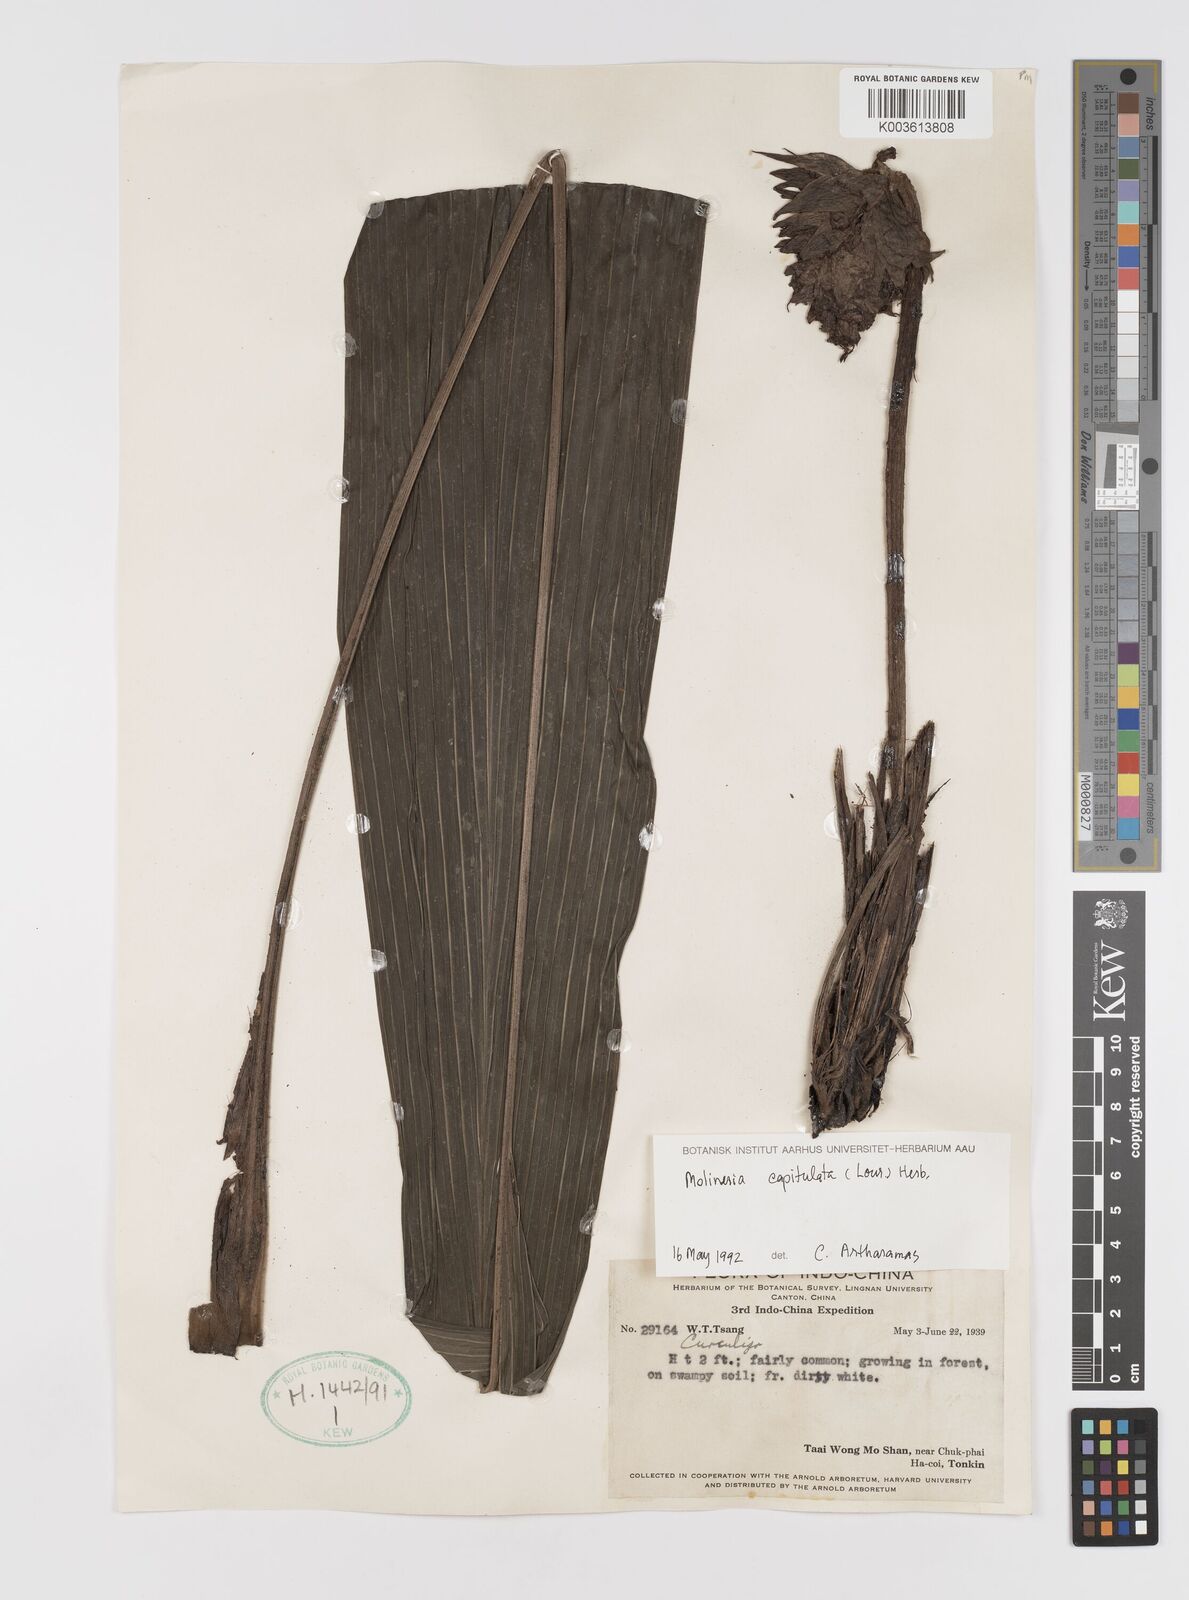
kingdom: Plantae
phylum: Tracheophyta
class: Liliopsida
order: Asparagales
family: Hypoxidaceae
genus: Curculigo
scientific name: Curculigo capitulata
